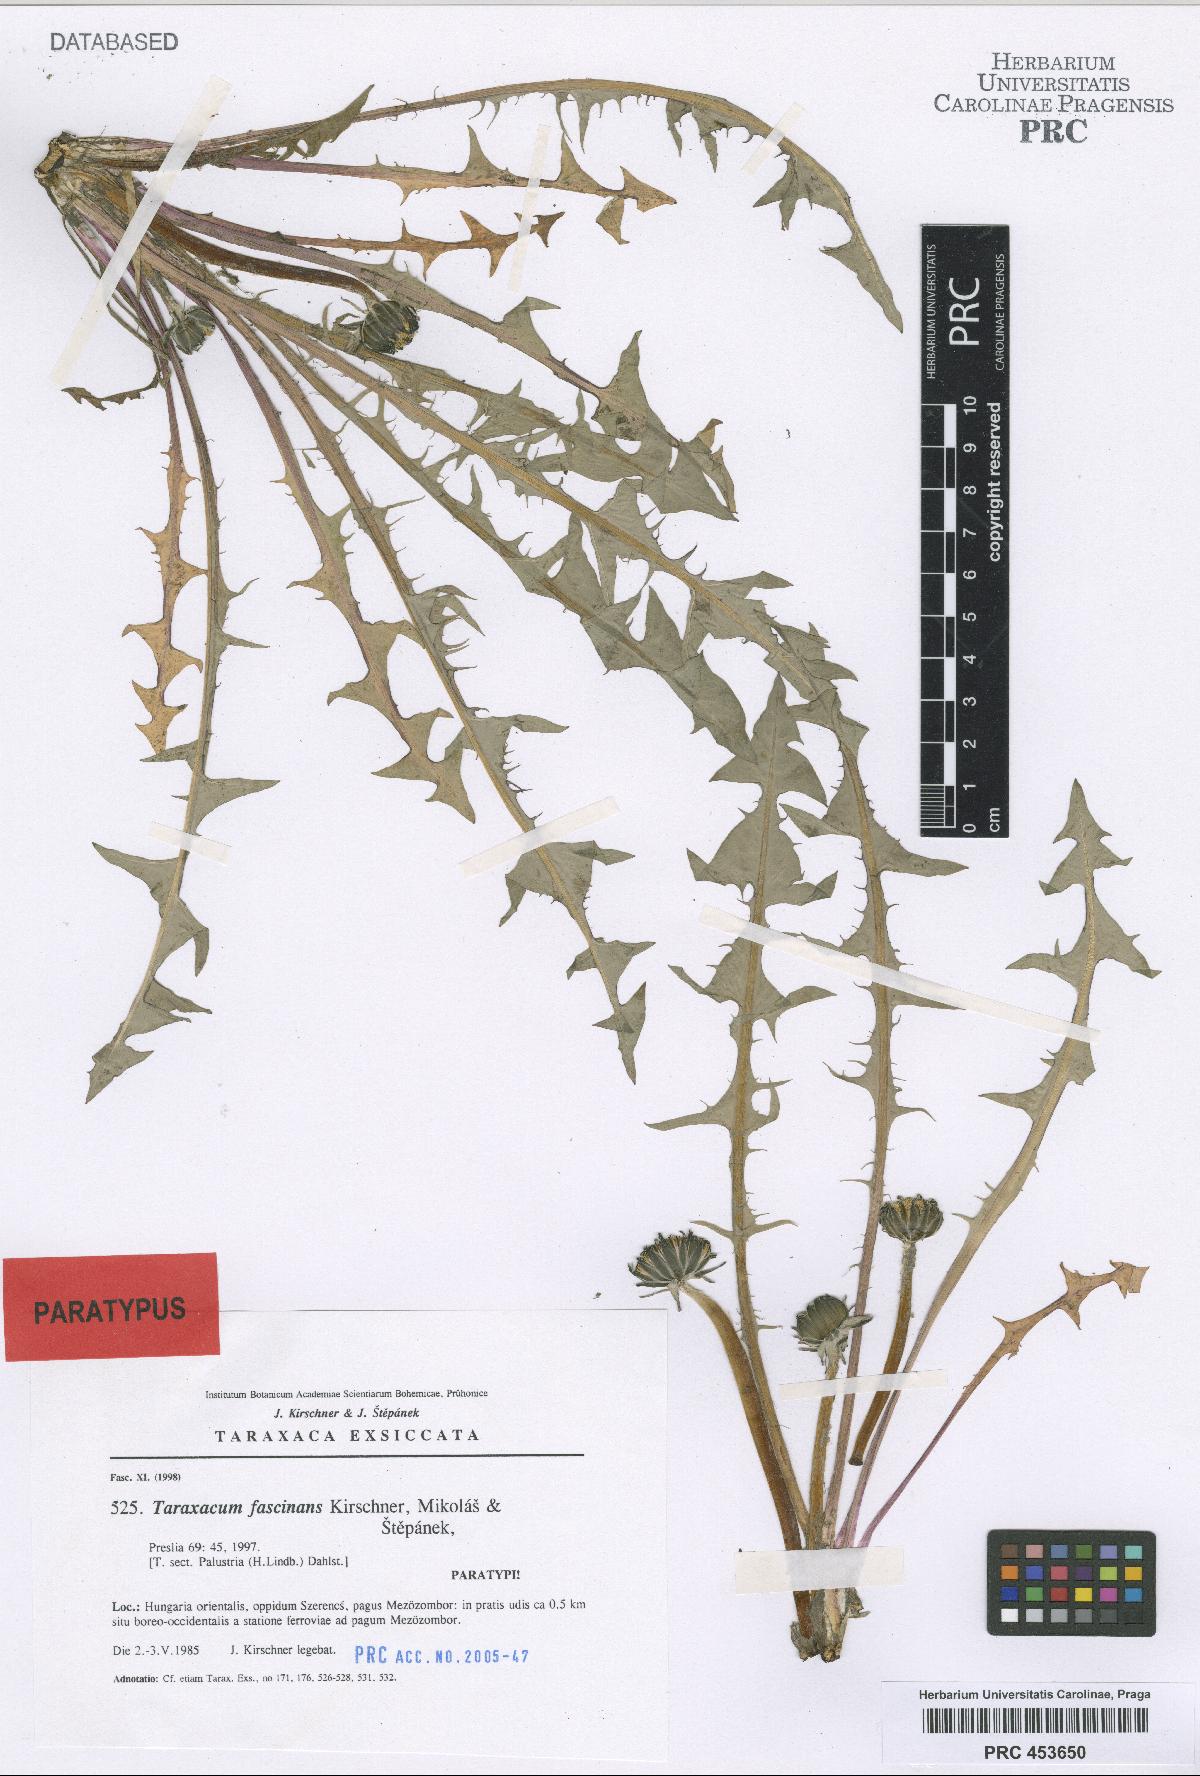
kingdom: Plantae
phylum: Tracheophyta
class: Magnoliopsida
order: Asterales
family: Asteraceae
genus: Taraxacum
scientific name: Taraxacum fascinans
